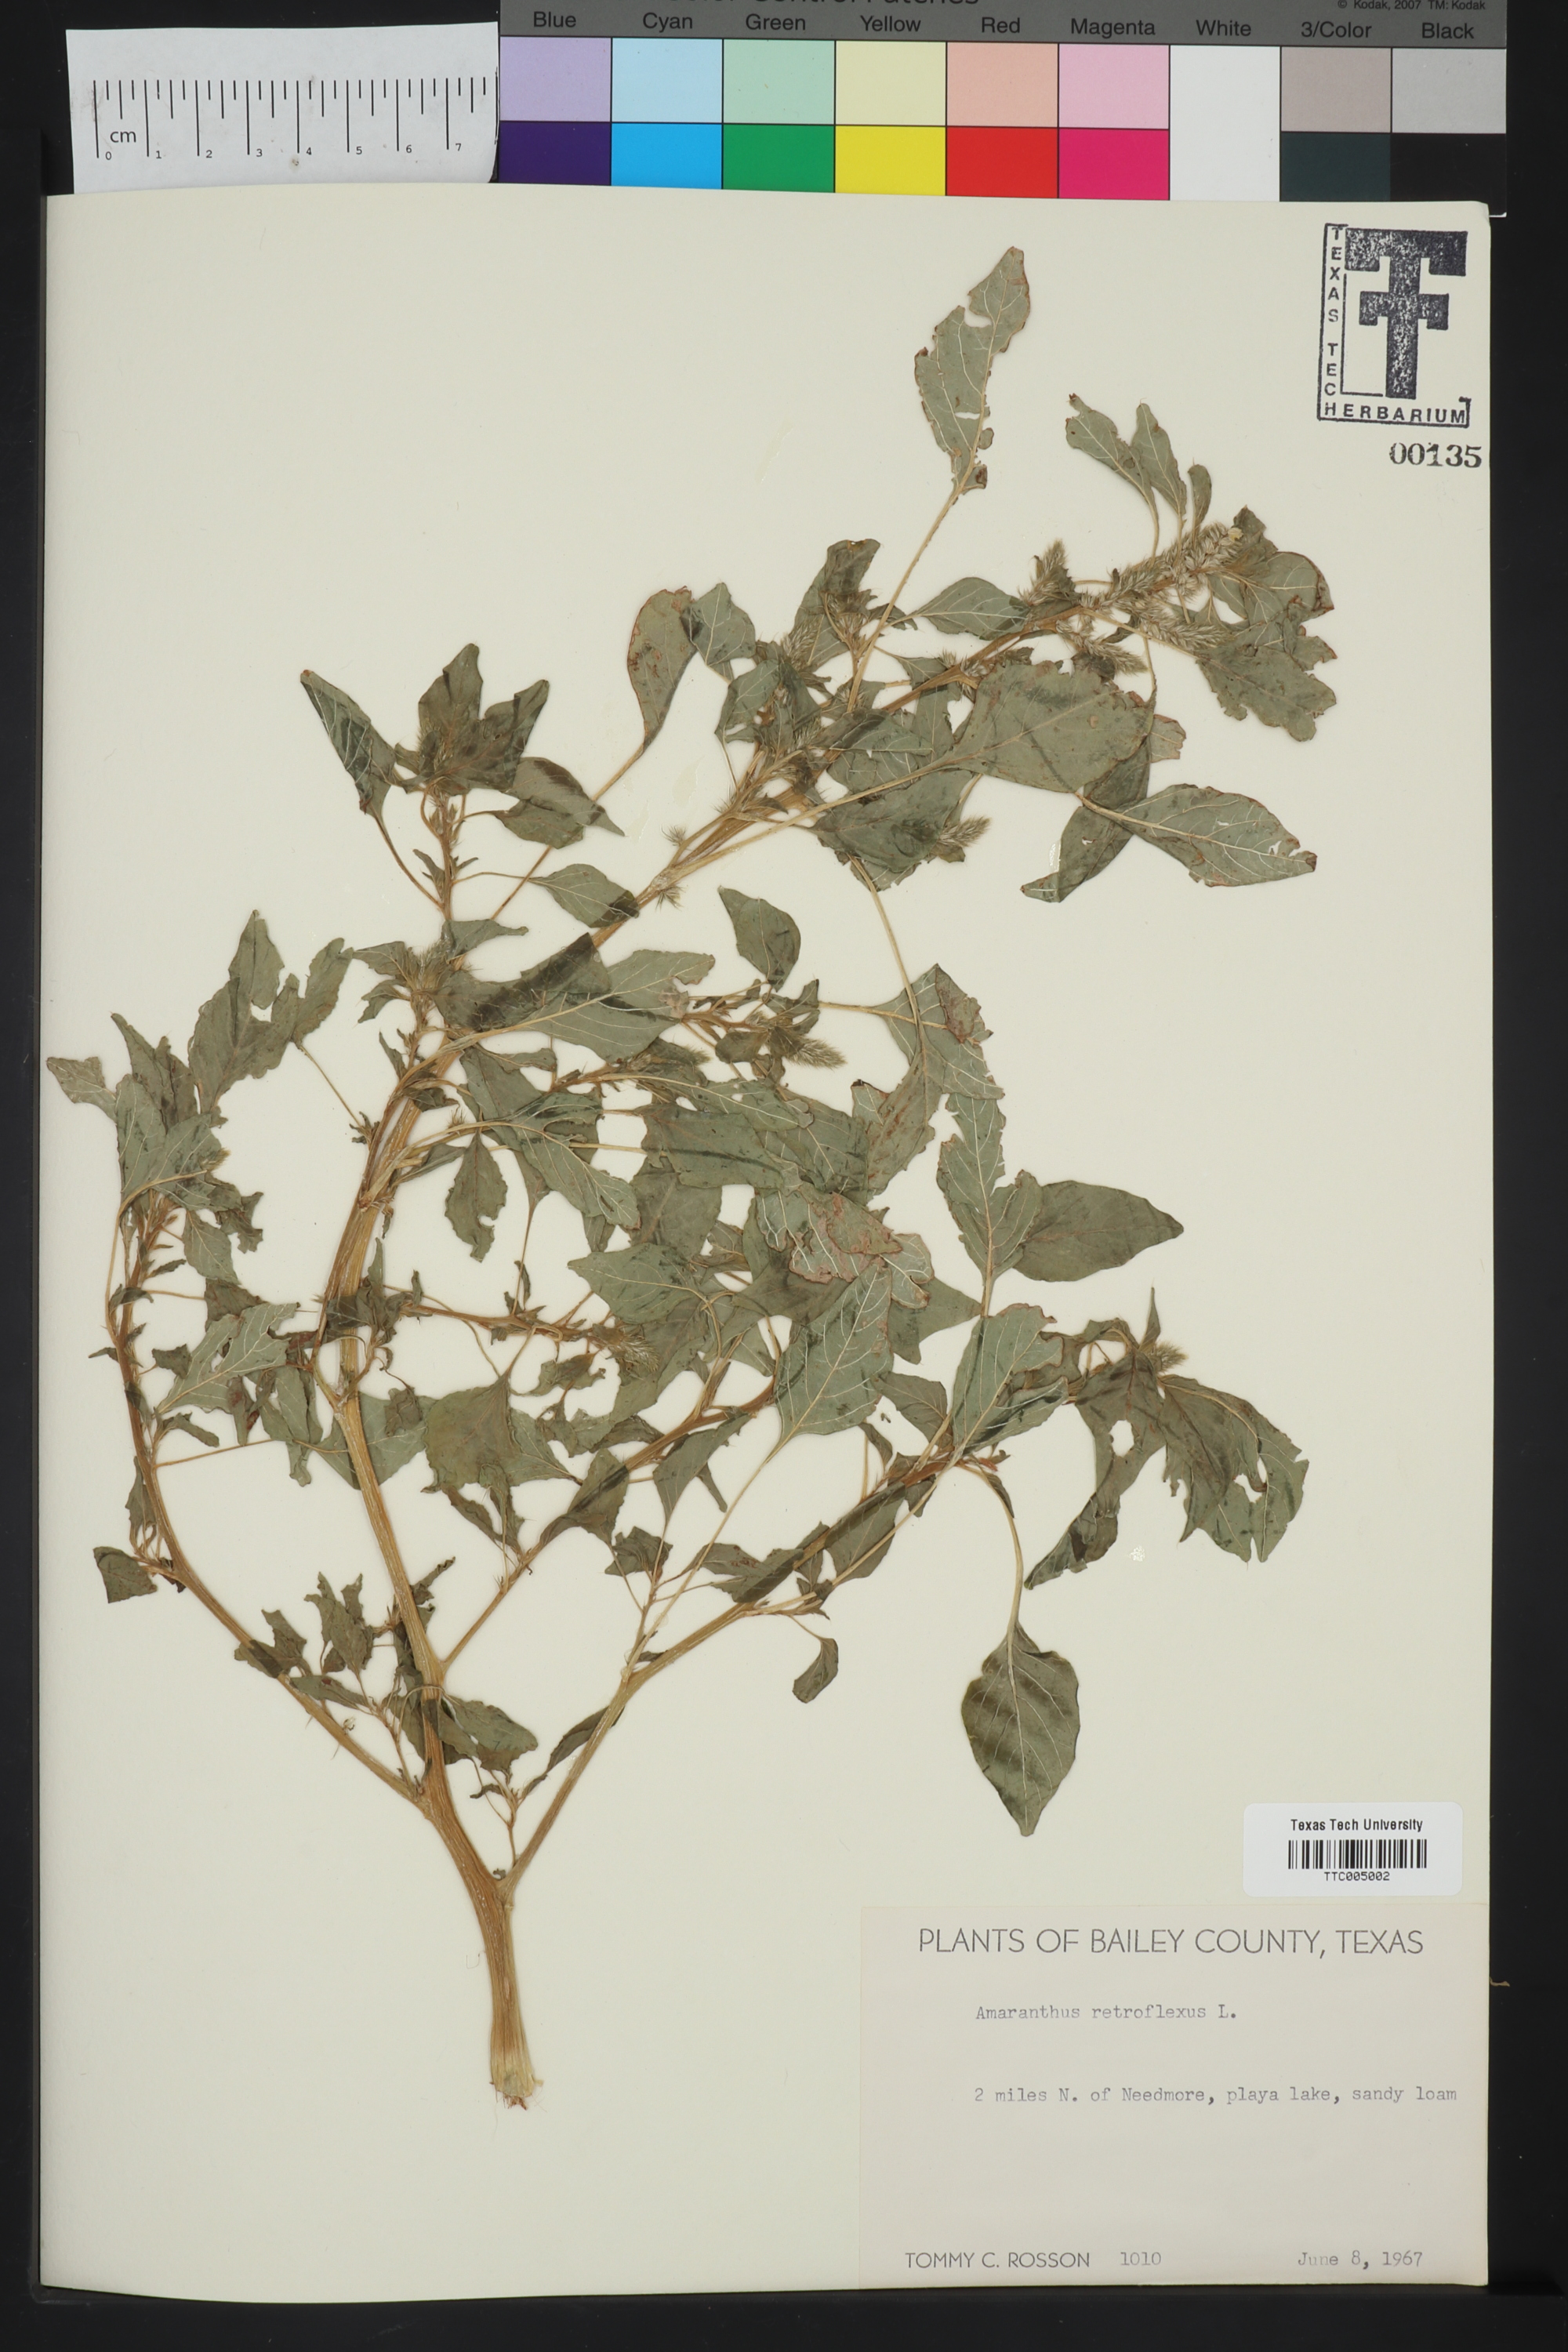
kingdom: Plantae
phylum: Tracheophyta
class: Magnoliopsida
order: Caryophyllales
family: Amaranthaceae
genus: Amaranthus
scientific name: Amaranthus retroflexus
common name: Redroot amaranth
